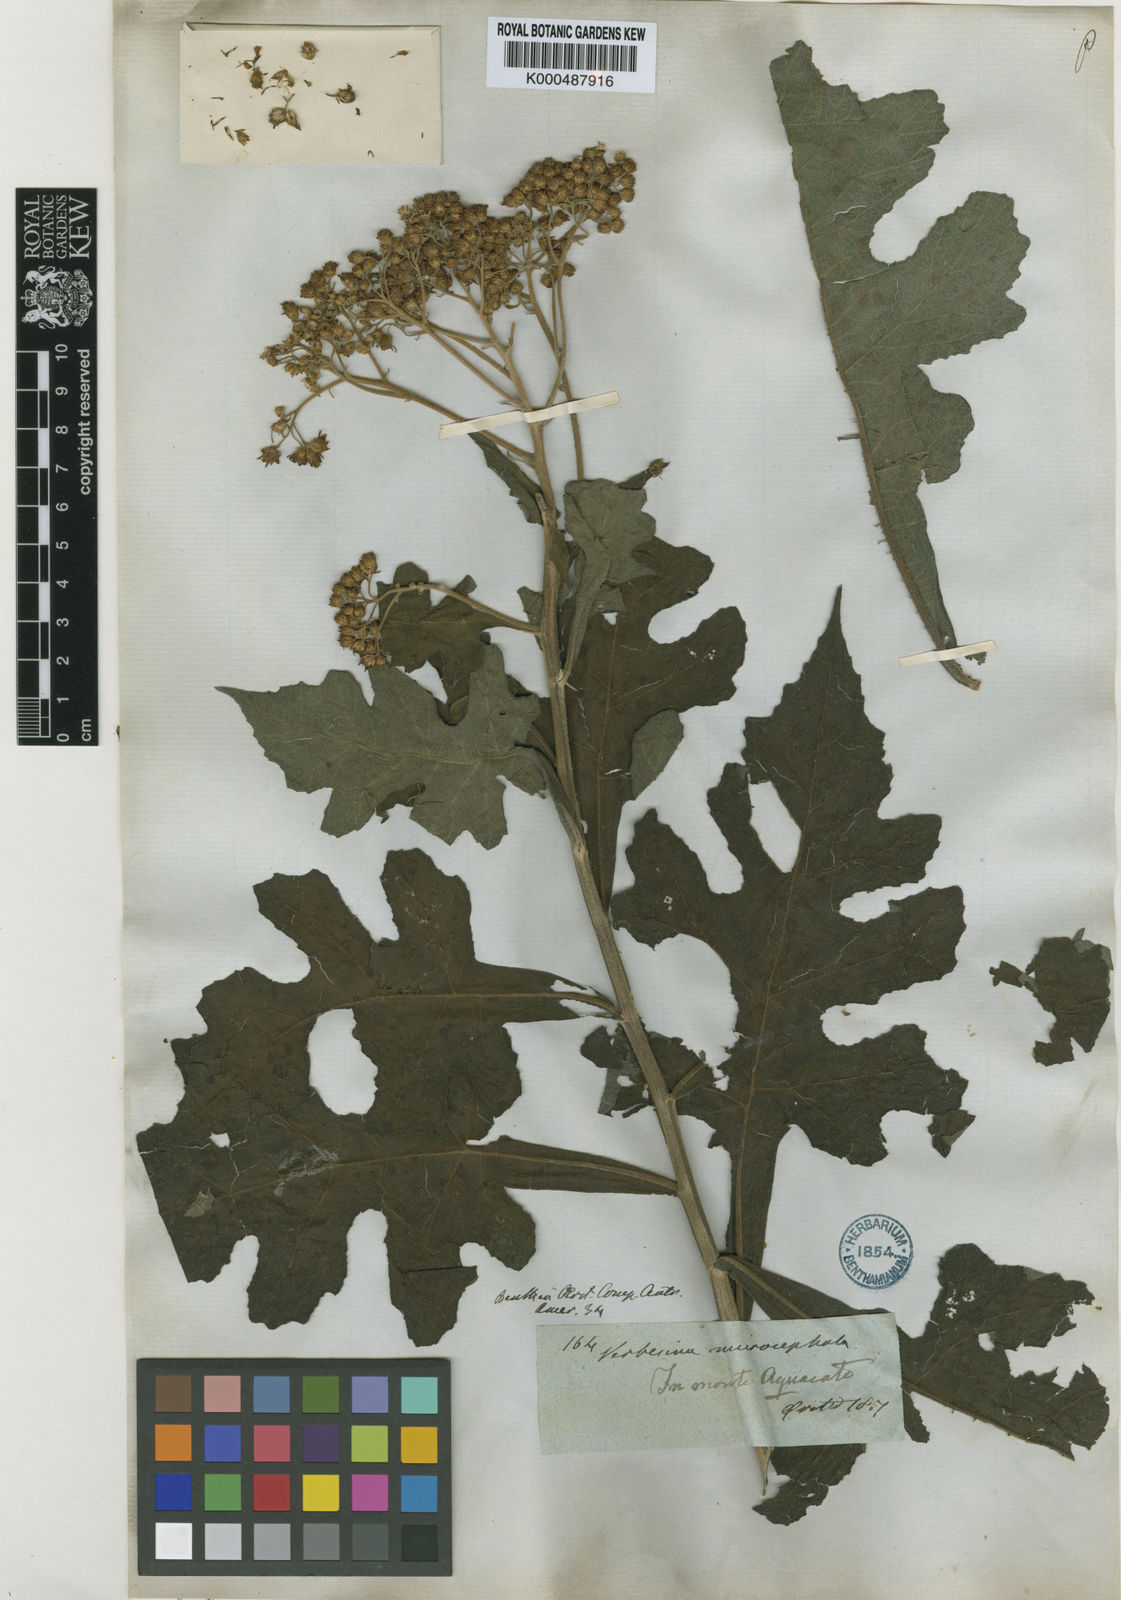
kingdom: Plantae
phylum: Tracheophyta
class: Magnoliopsida
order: Asterales
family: Asteraceae
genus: Verbesina
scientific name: Verbesina turbacensis
